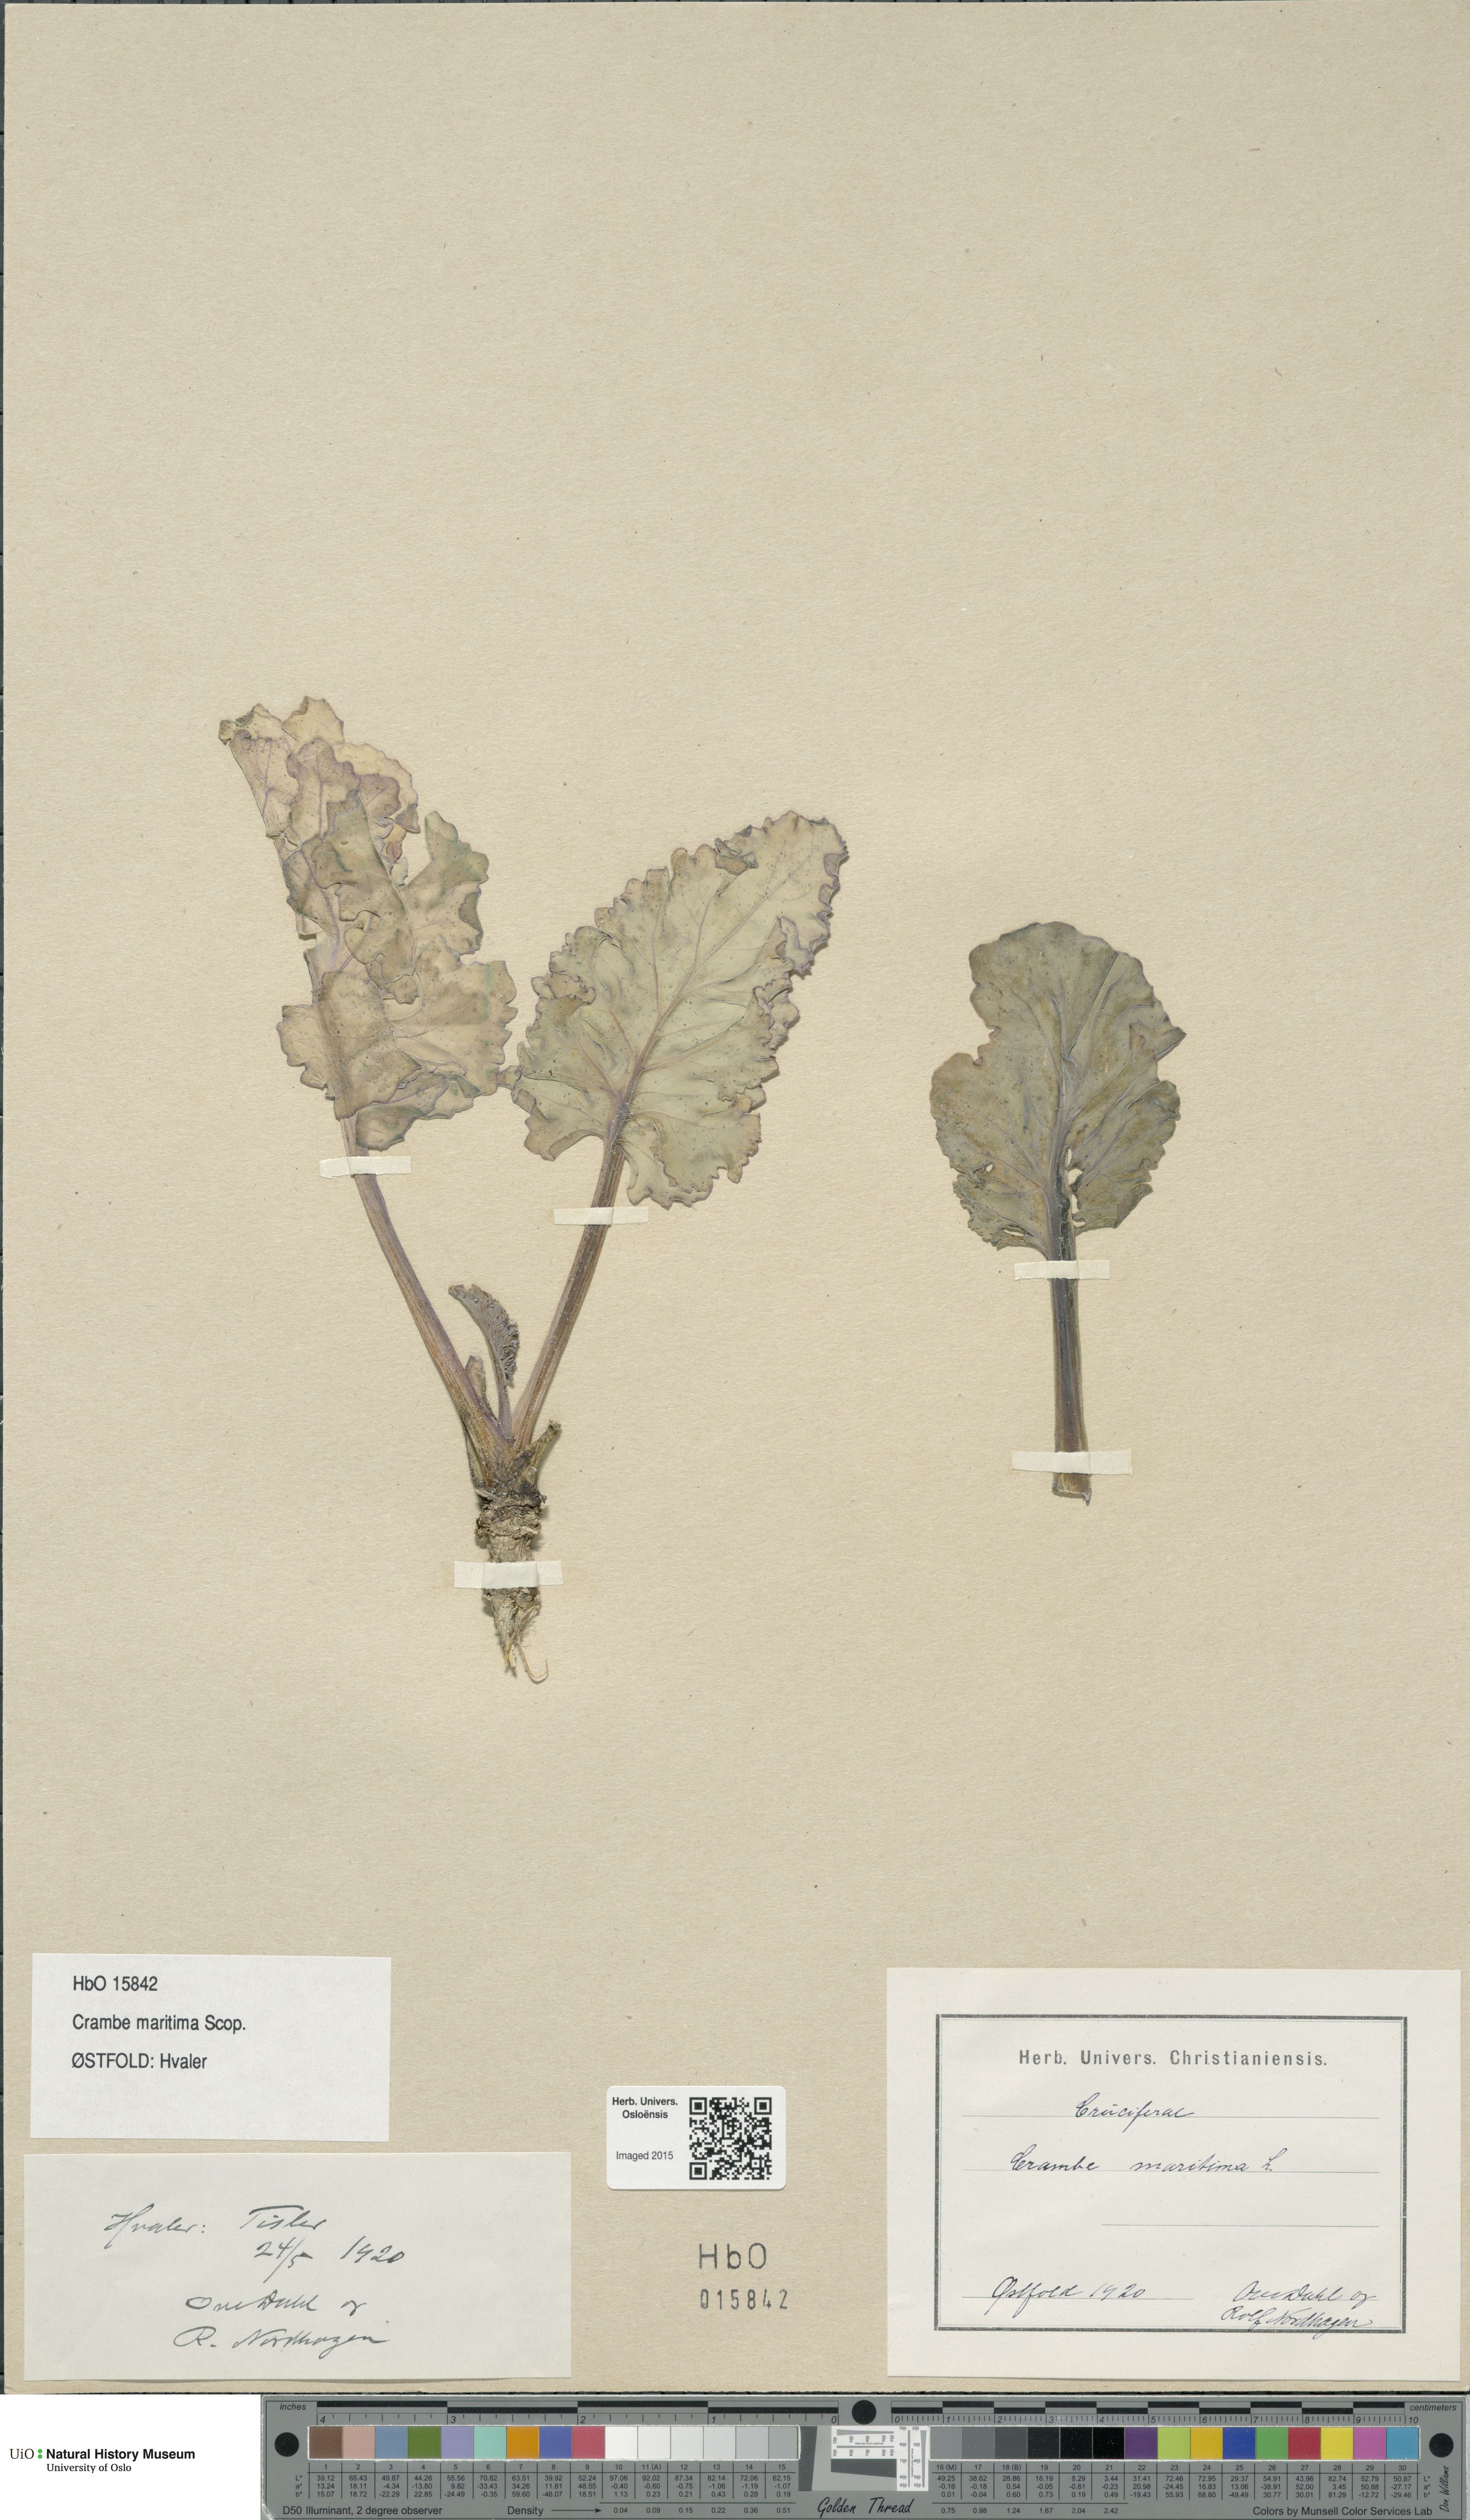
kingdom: Plantae
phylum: Tracheophyta
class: Magnoliopsida
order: Brassicales
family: Brassicaceae
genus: Crambe
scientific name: Crambe maritima
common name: Sea-kale
